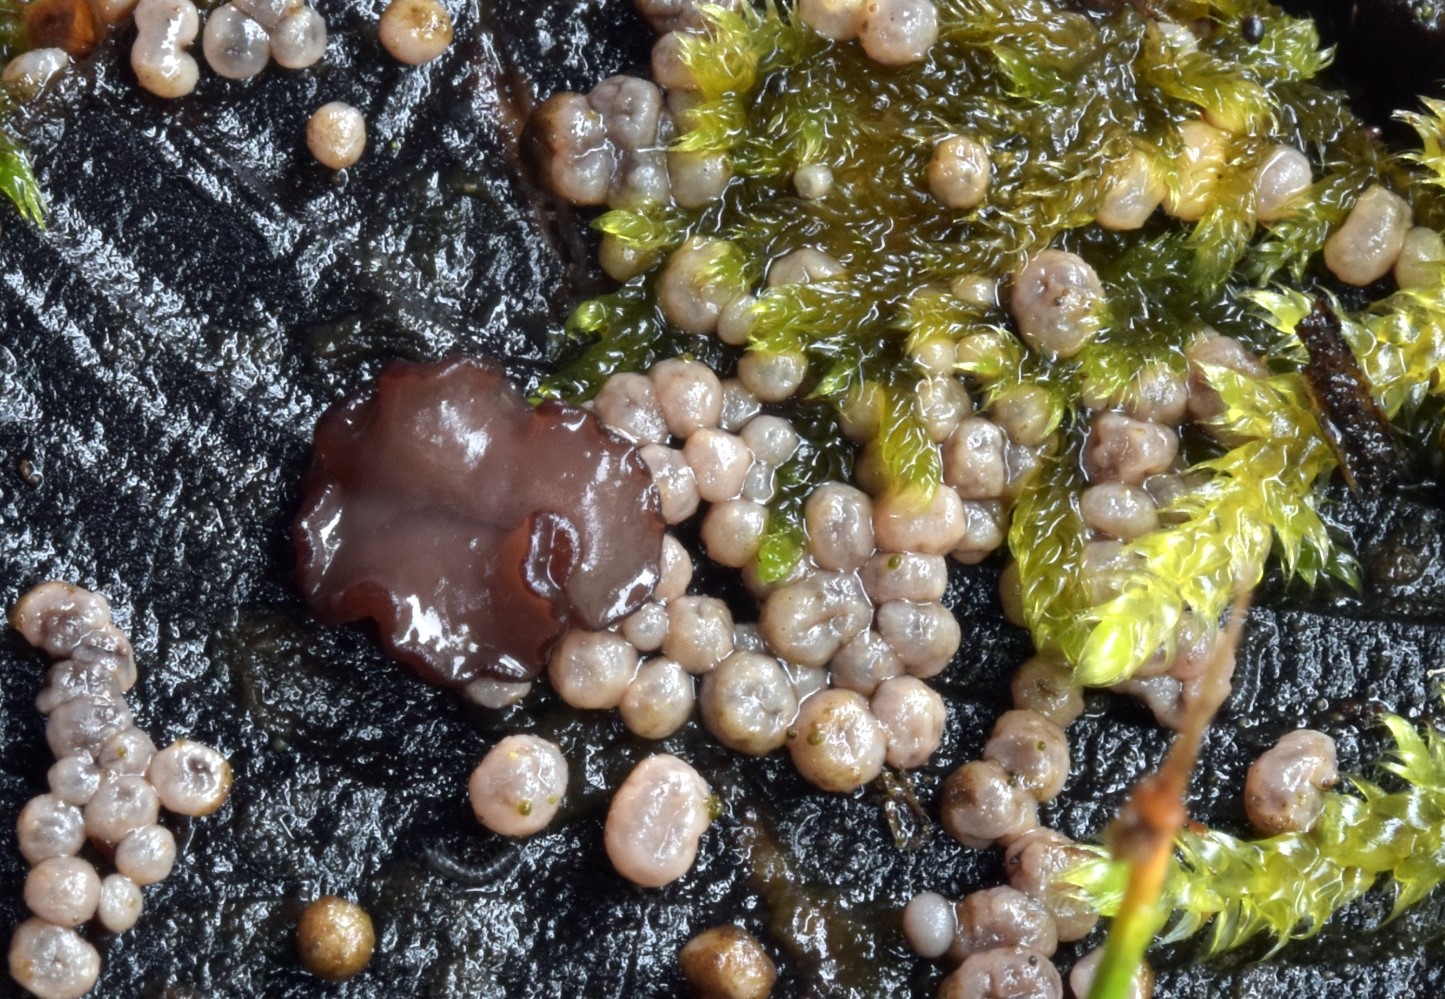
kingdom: Fungi
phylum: Ascomycota
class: Leotiomycetes
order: Helotiales
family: Gelatinodiscaceae
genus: Ascocoryne
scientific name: Ascocoryne albida
